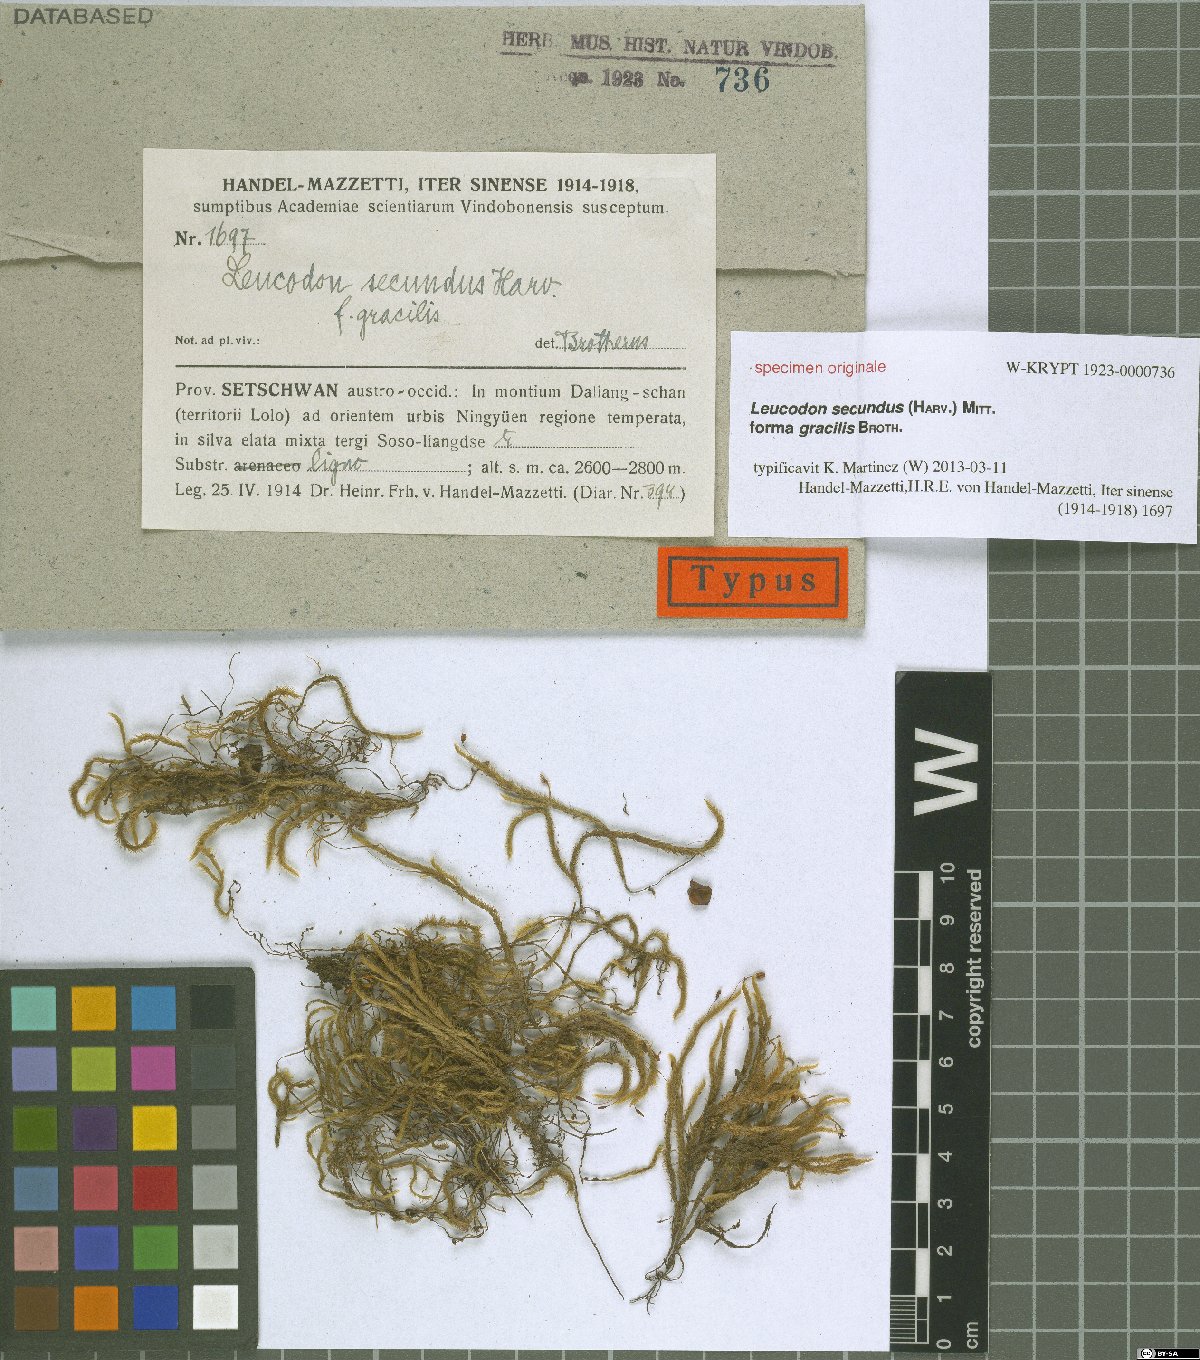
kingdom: Plantae
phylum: Bryophyta
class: Bryopsida
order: Hypnales
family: Leucodontaceae
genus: Leucodon
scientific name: Leucodon secundus
